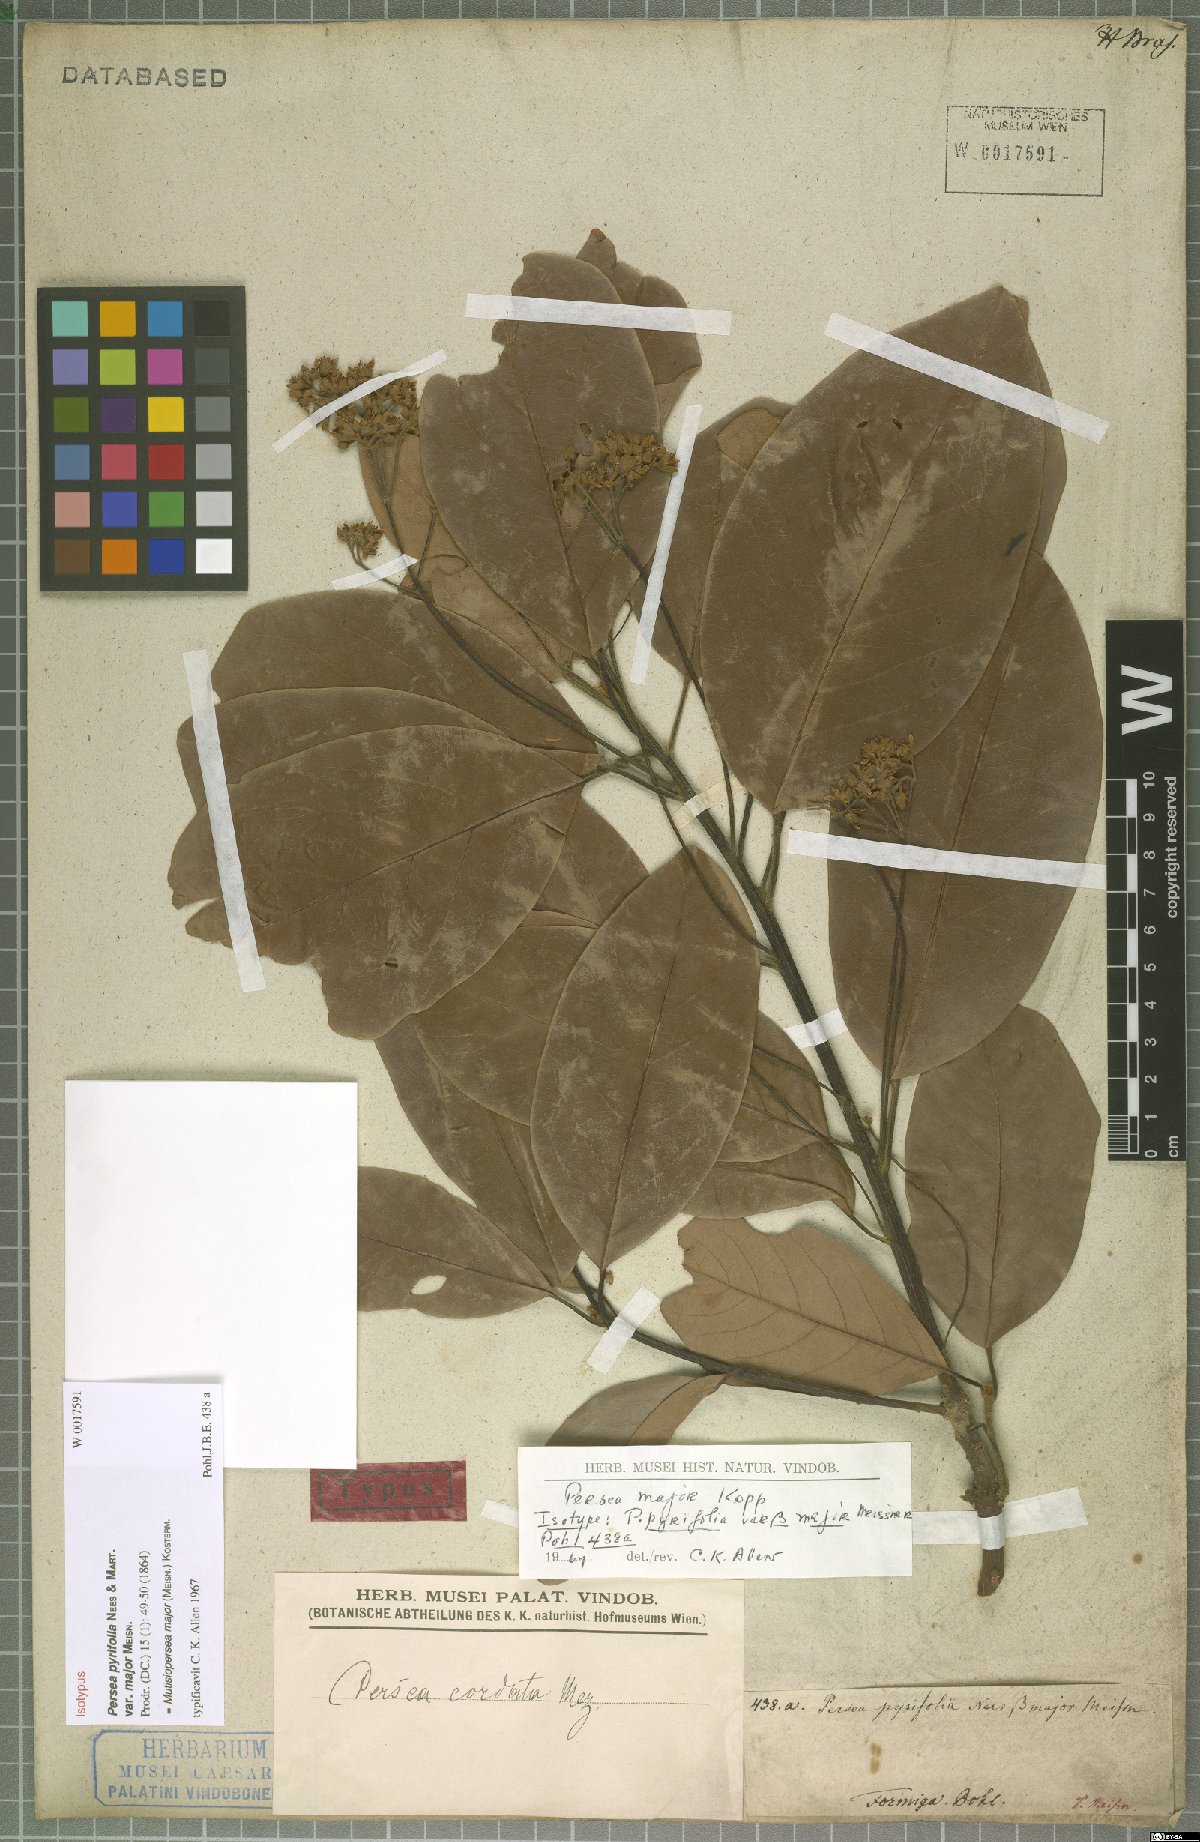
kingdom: Plantae
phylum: Tracheophyta
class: Magnoliopsida
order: Laurales
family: Lauraceae
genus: Persea
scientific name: Persea major
